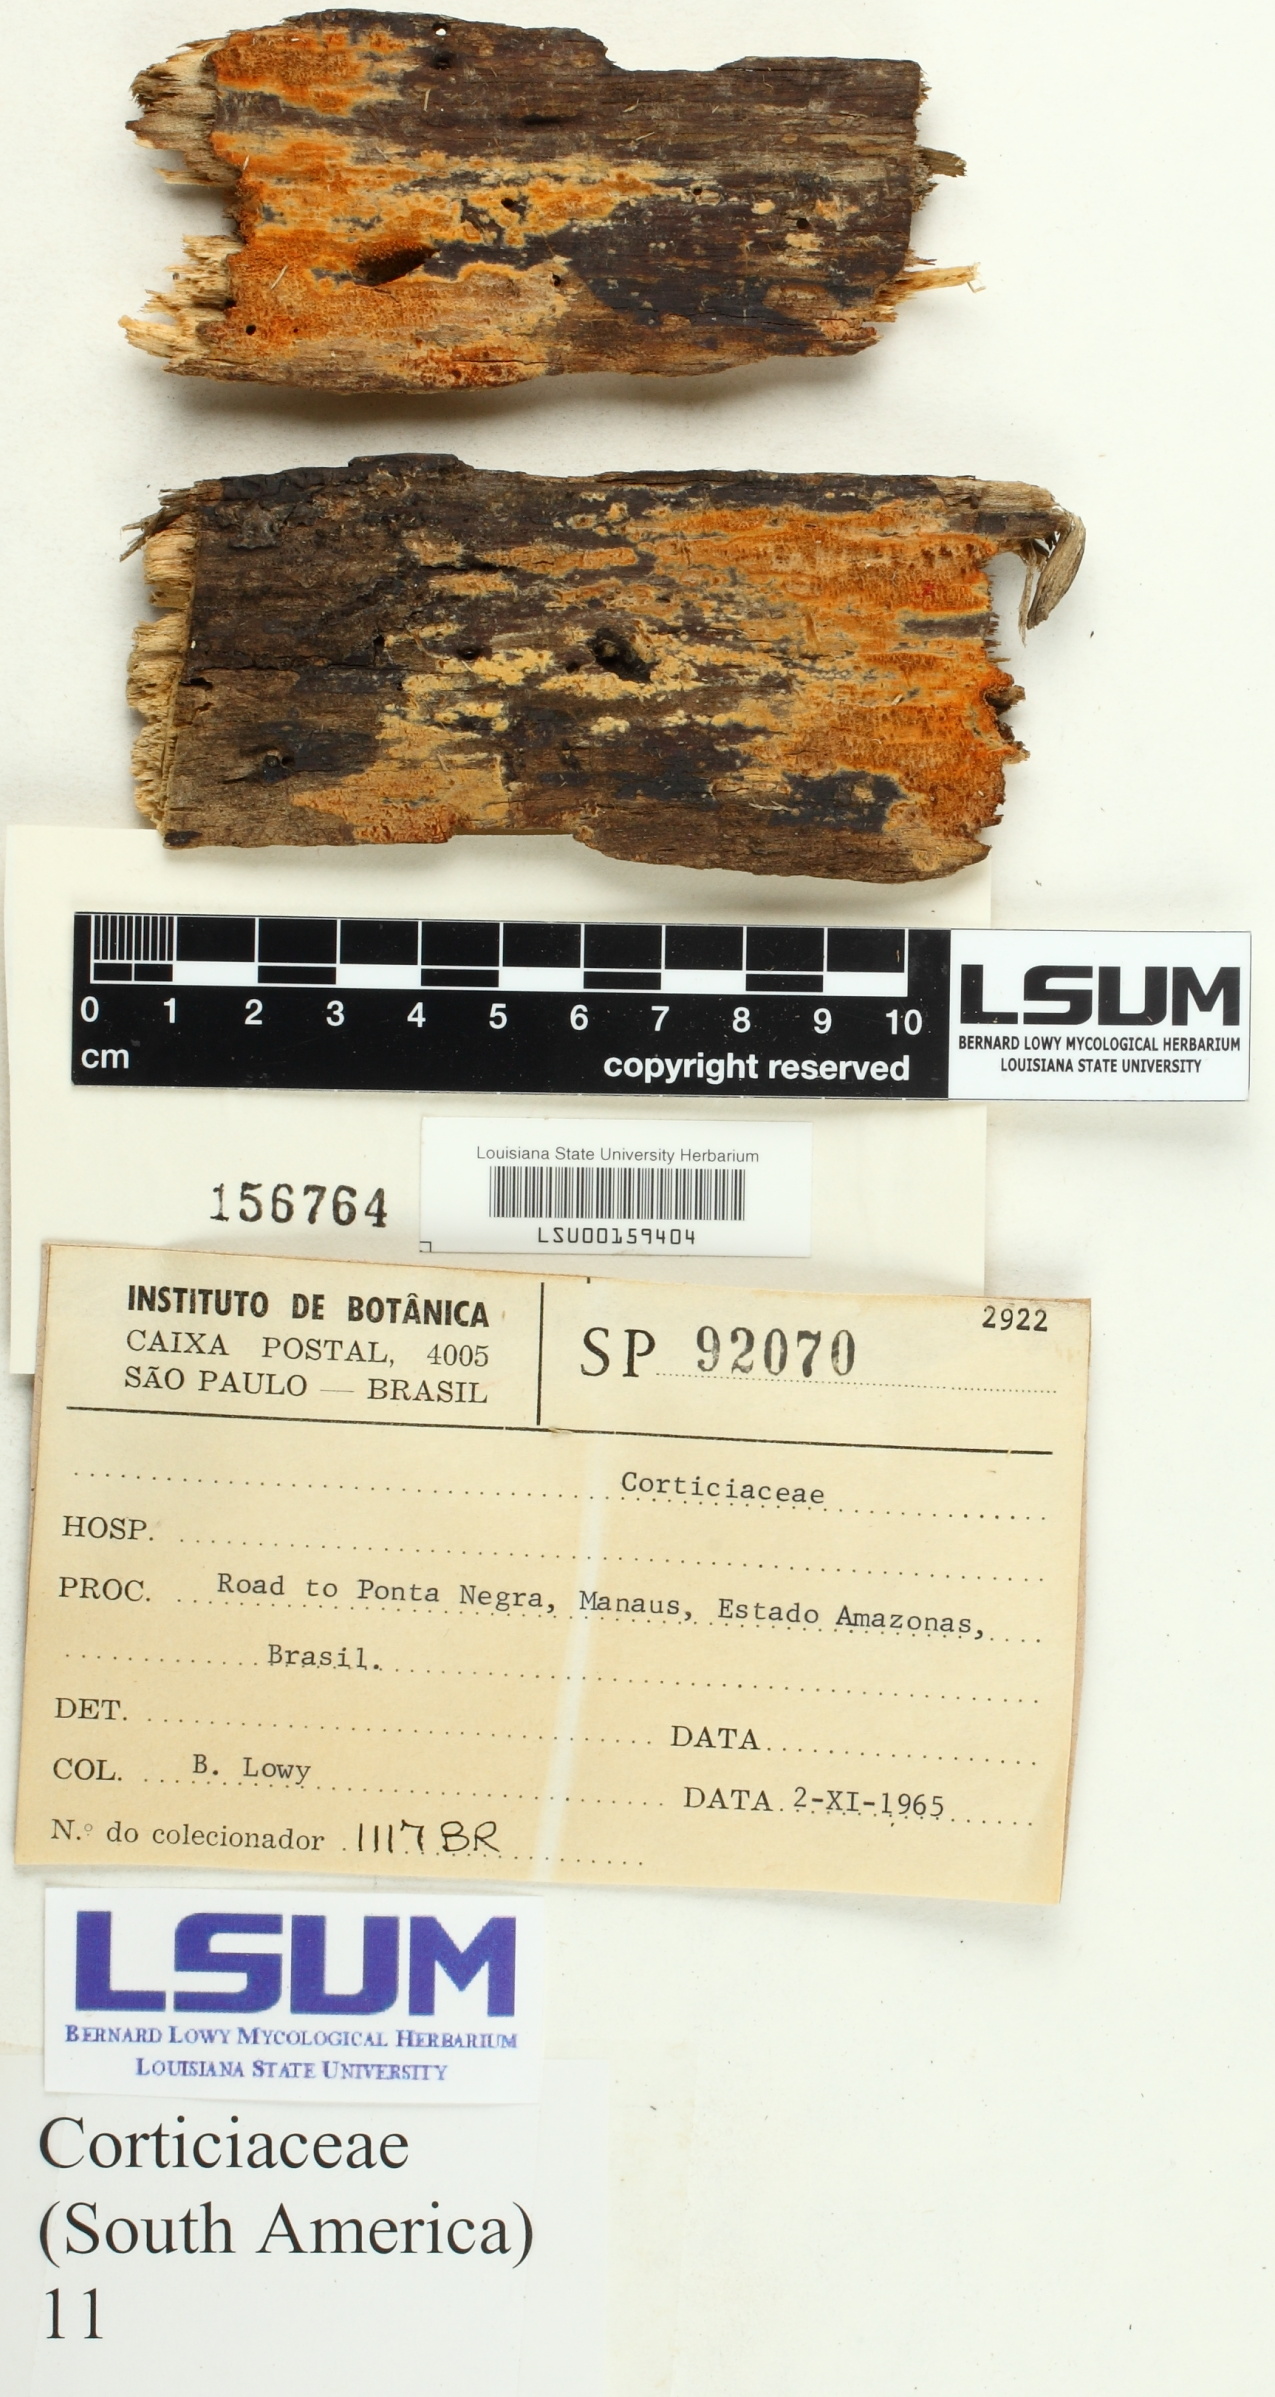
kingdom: Fungi
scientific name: Fungi
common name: Fungi
